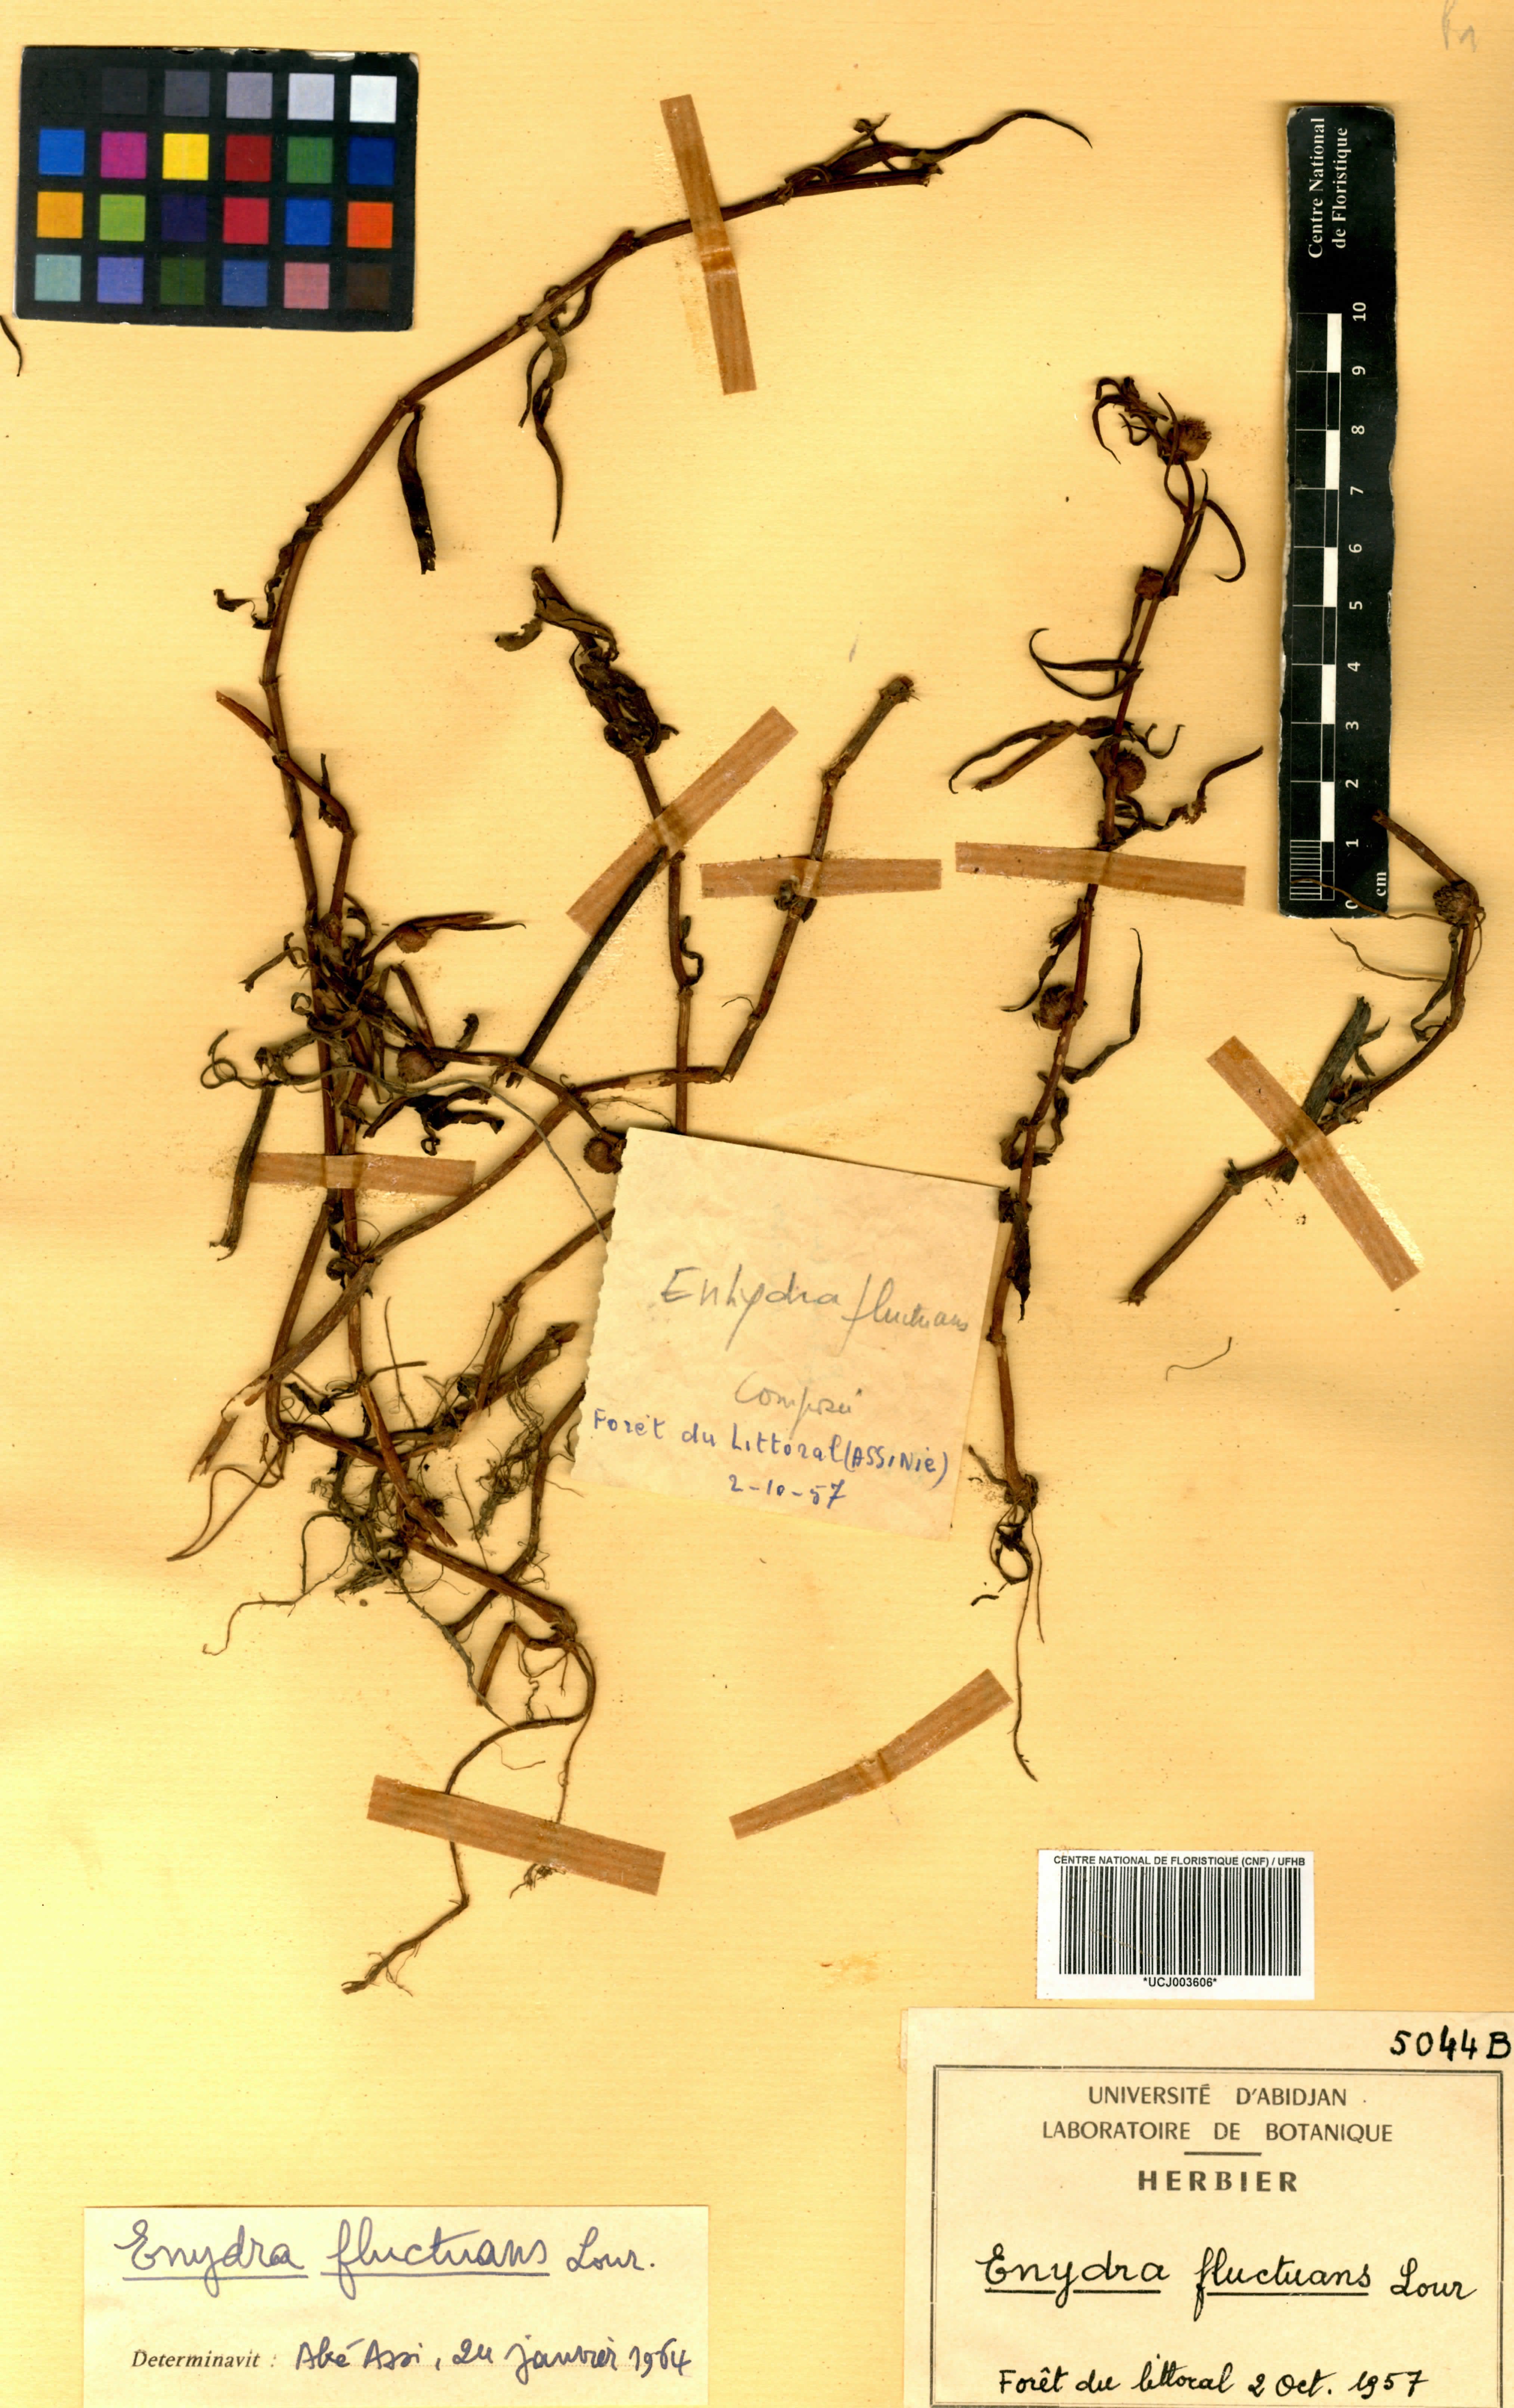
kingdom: Plantae
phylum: Tracheophyta
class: Magnoliopsida
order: Asterales
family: Asteraceae
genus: Enydra
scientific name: Enydra fluctuans
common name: Buffalo spinach
